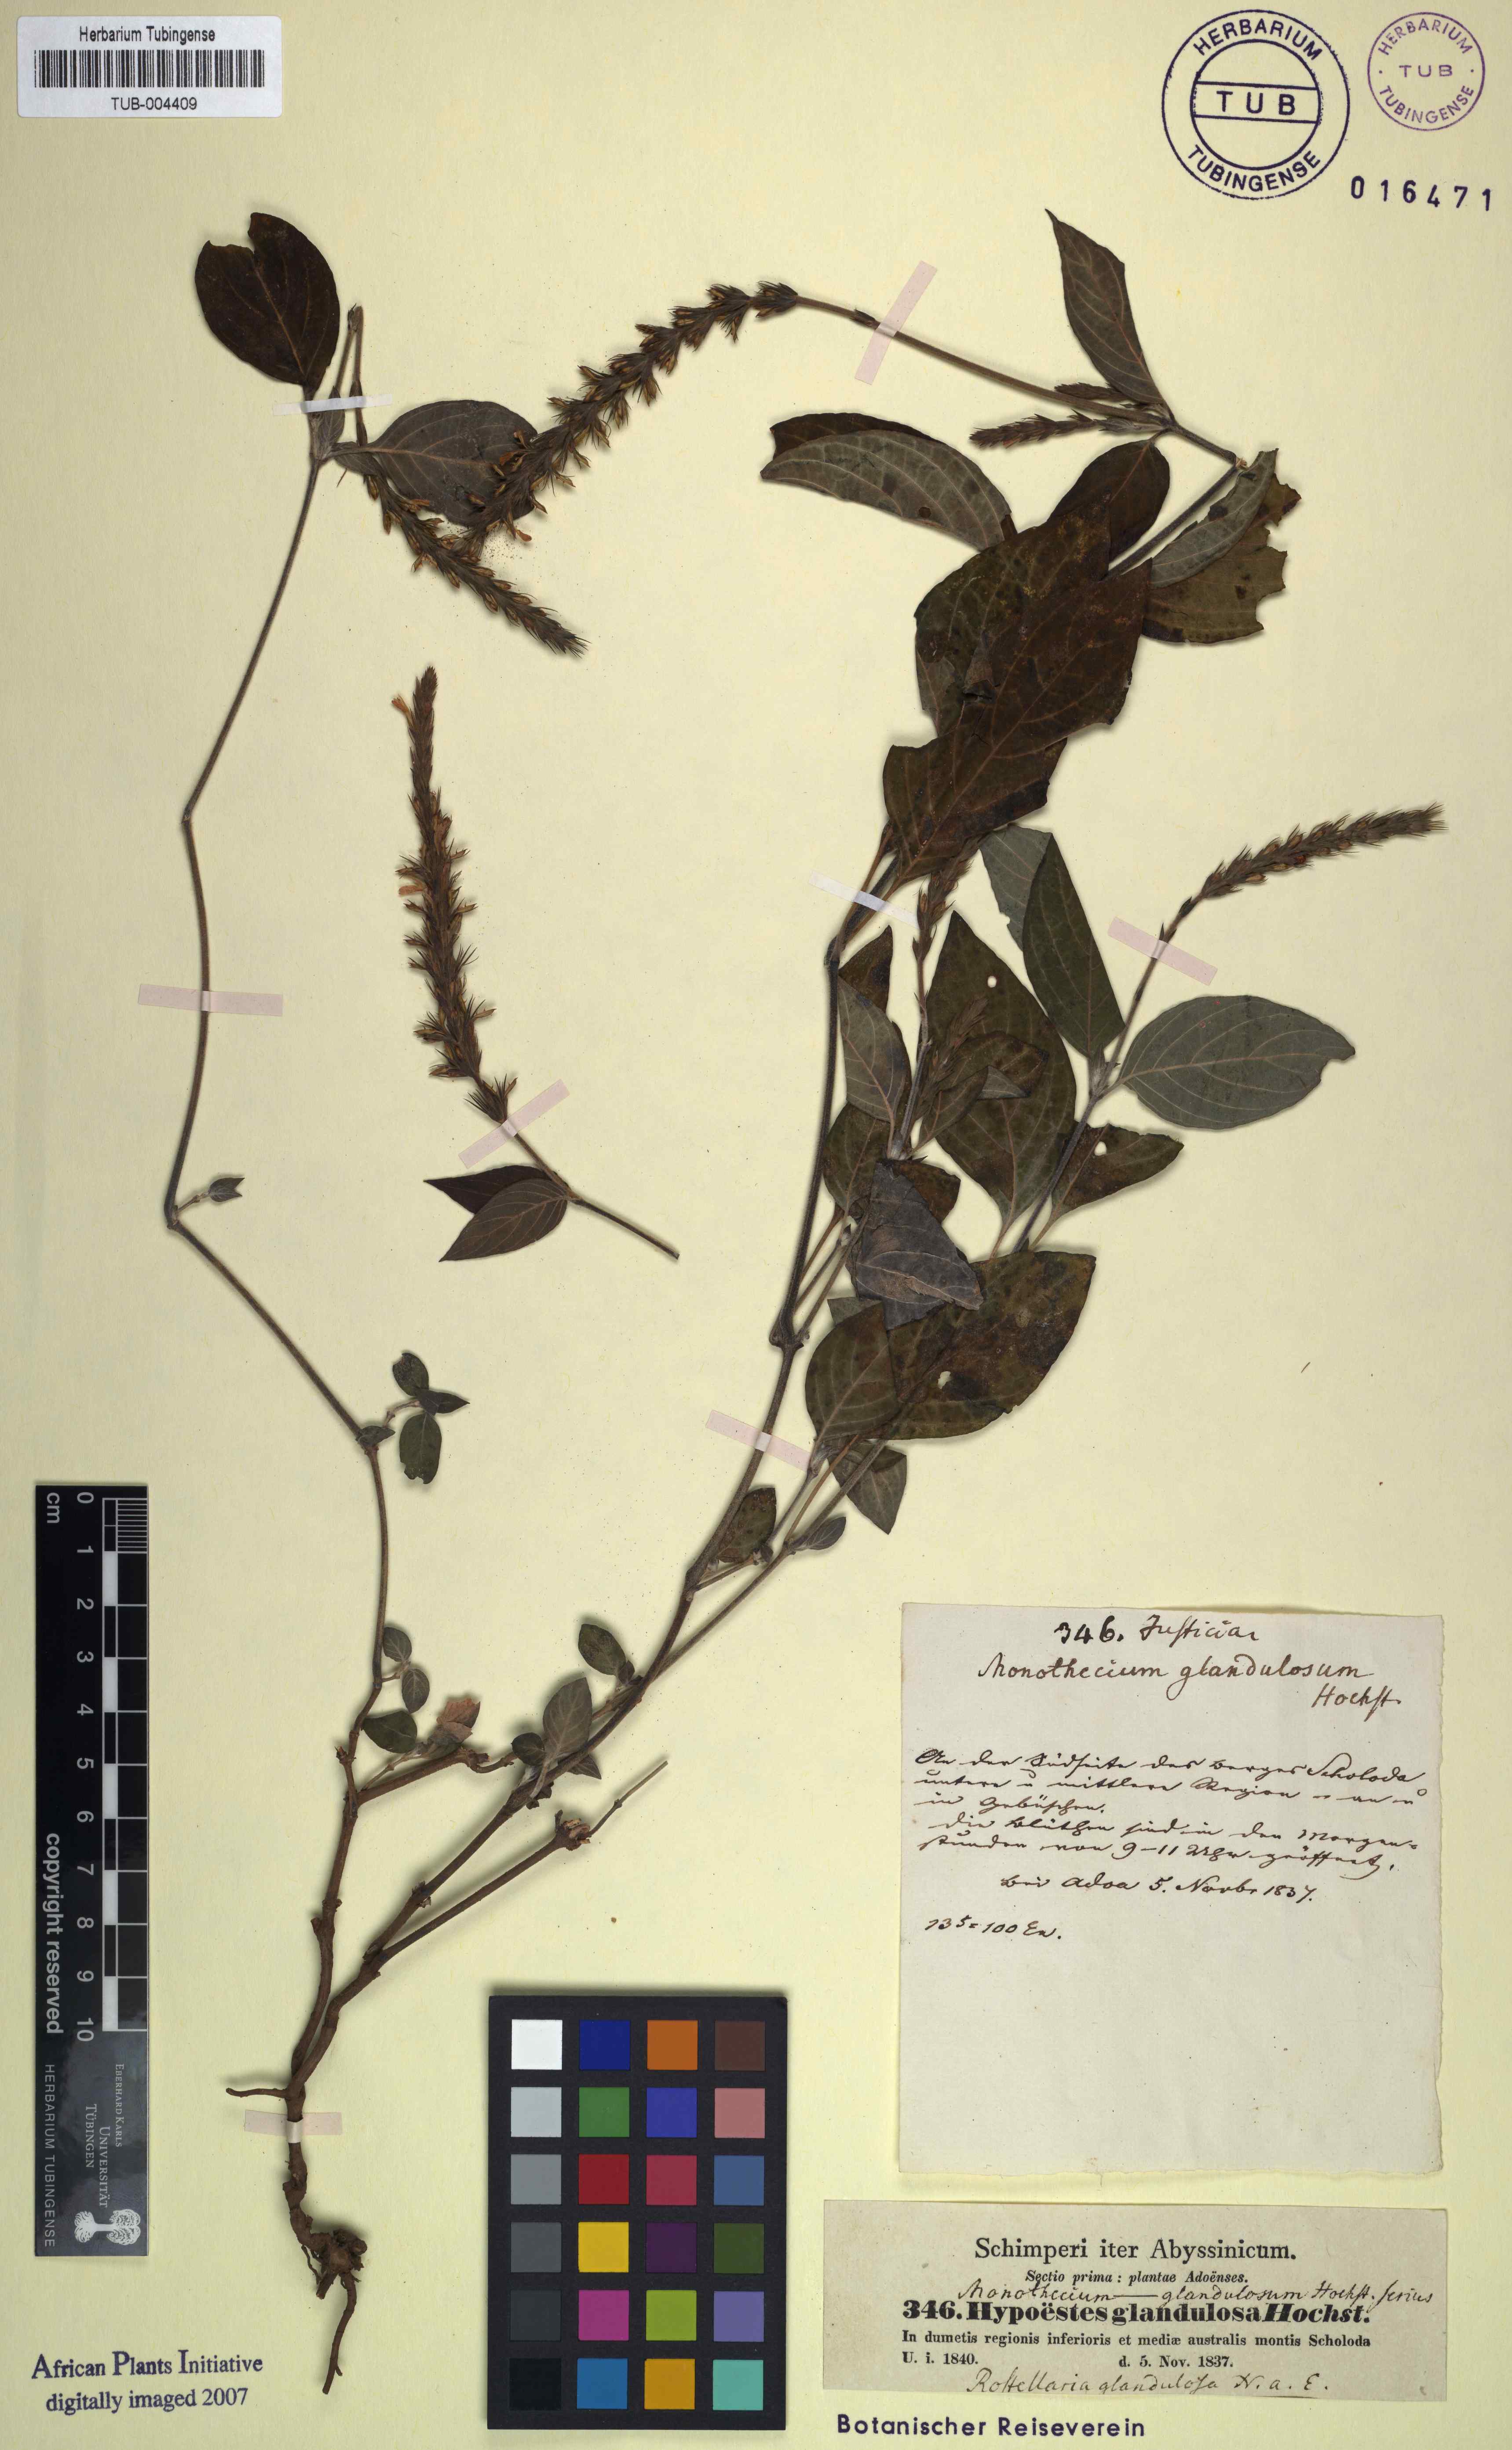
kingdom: Plantae
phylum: Tracheophyta
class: Magnoliopsida
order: Lamiales
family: Acanthaceae
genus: Monothecium
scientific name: Monothecium glandulosum
